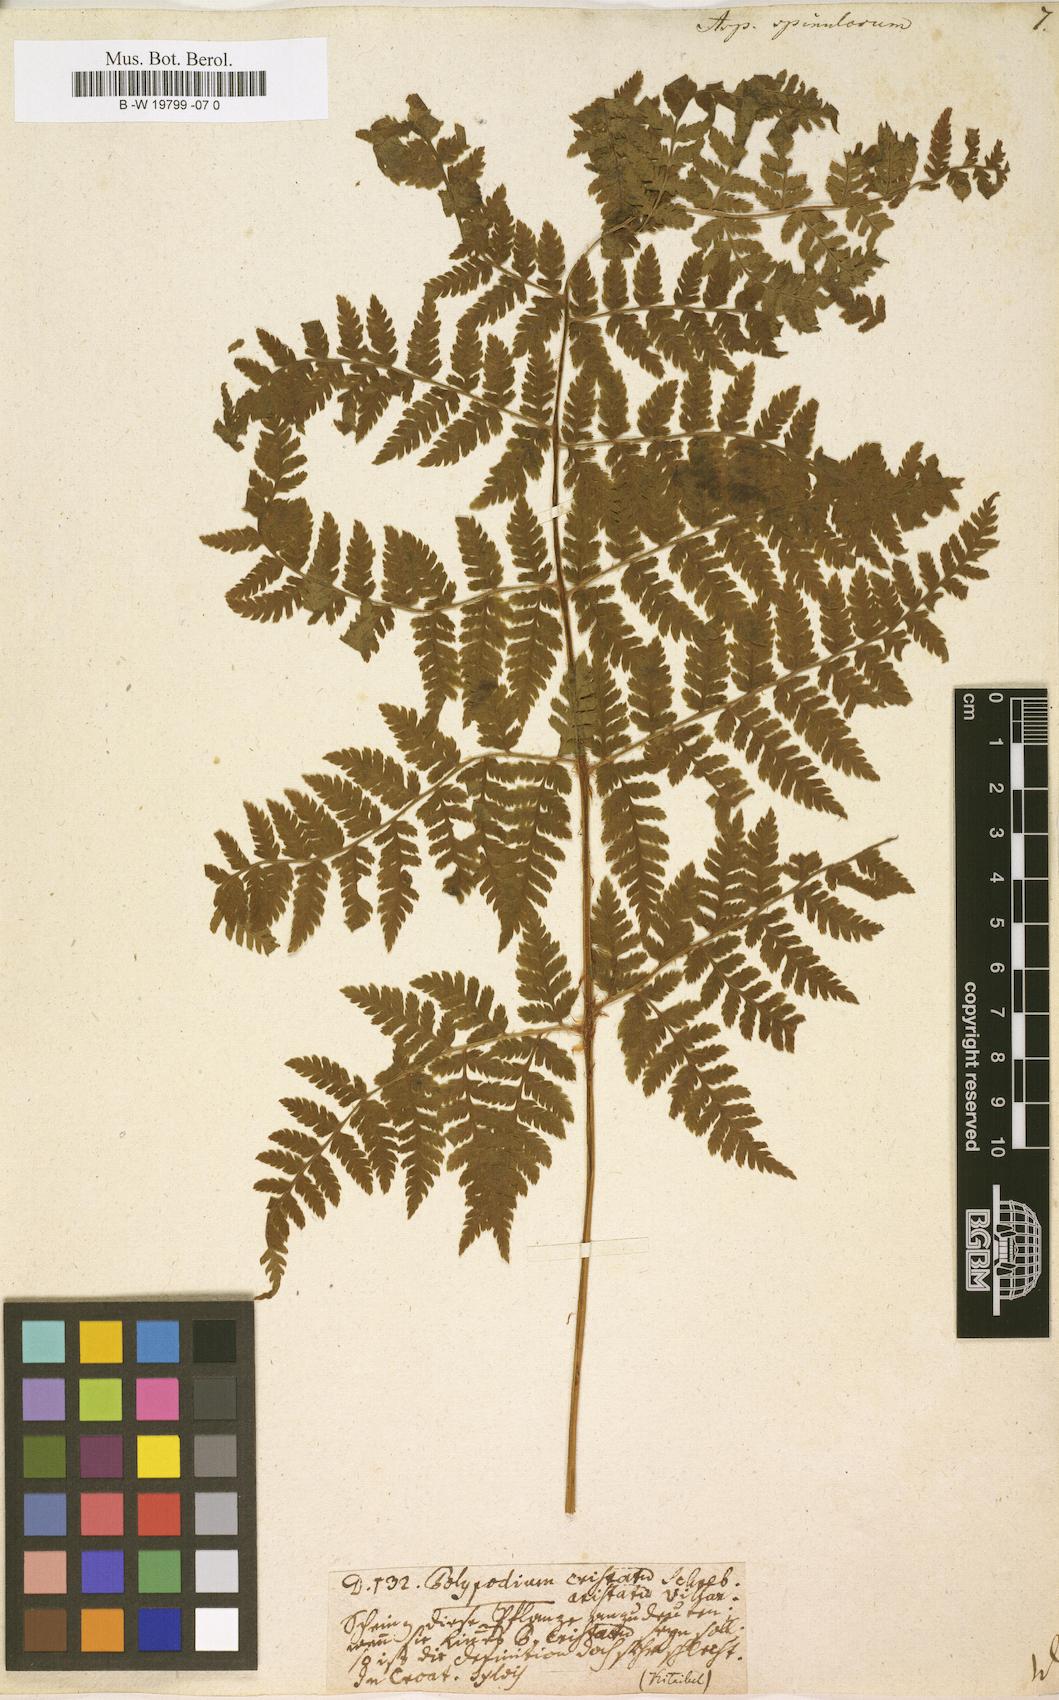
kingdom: Plantae
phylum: Tracheophyta
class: Polypodiopsida
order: Polypodiales
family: Dryopteridaceae
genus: Dryopteris
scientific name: Dryopteris
